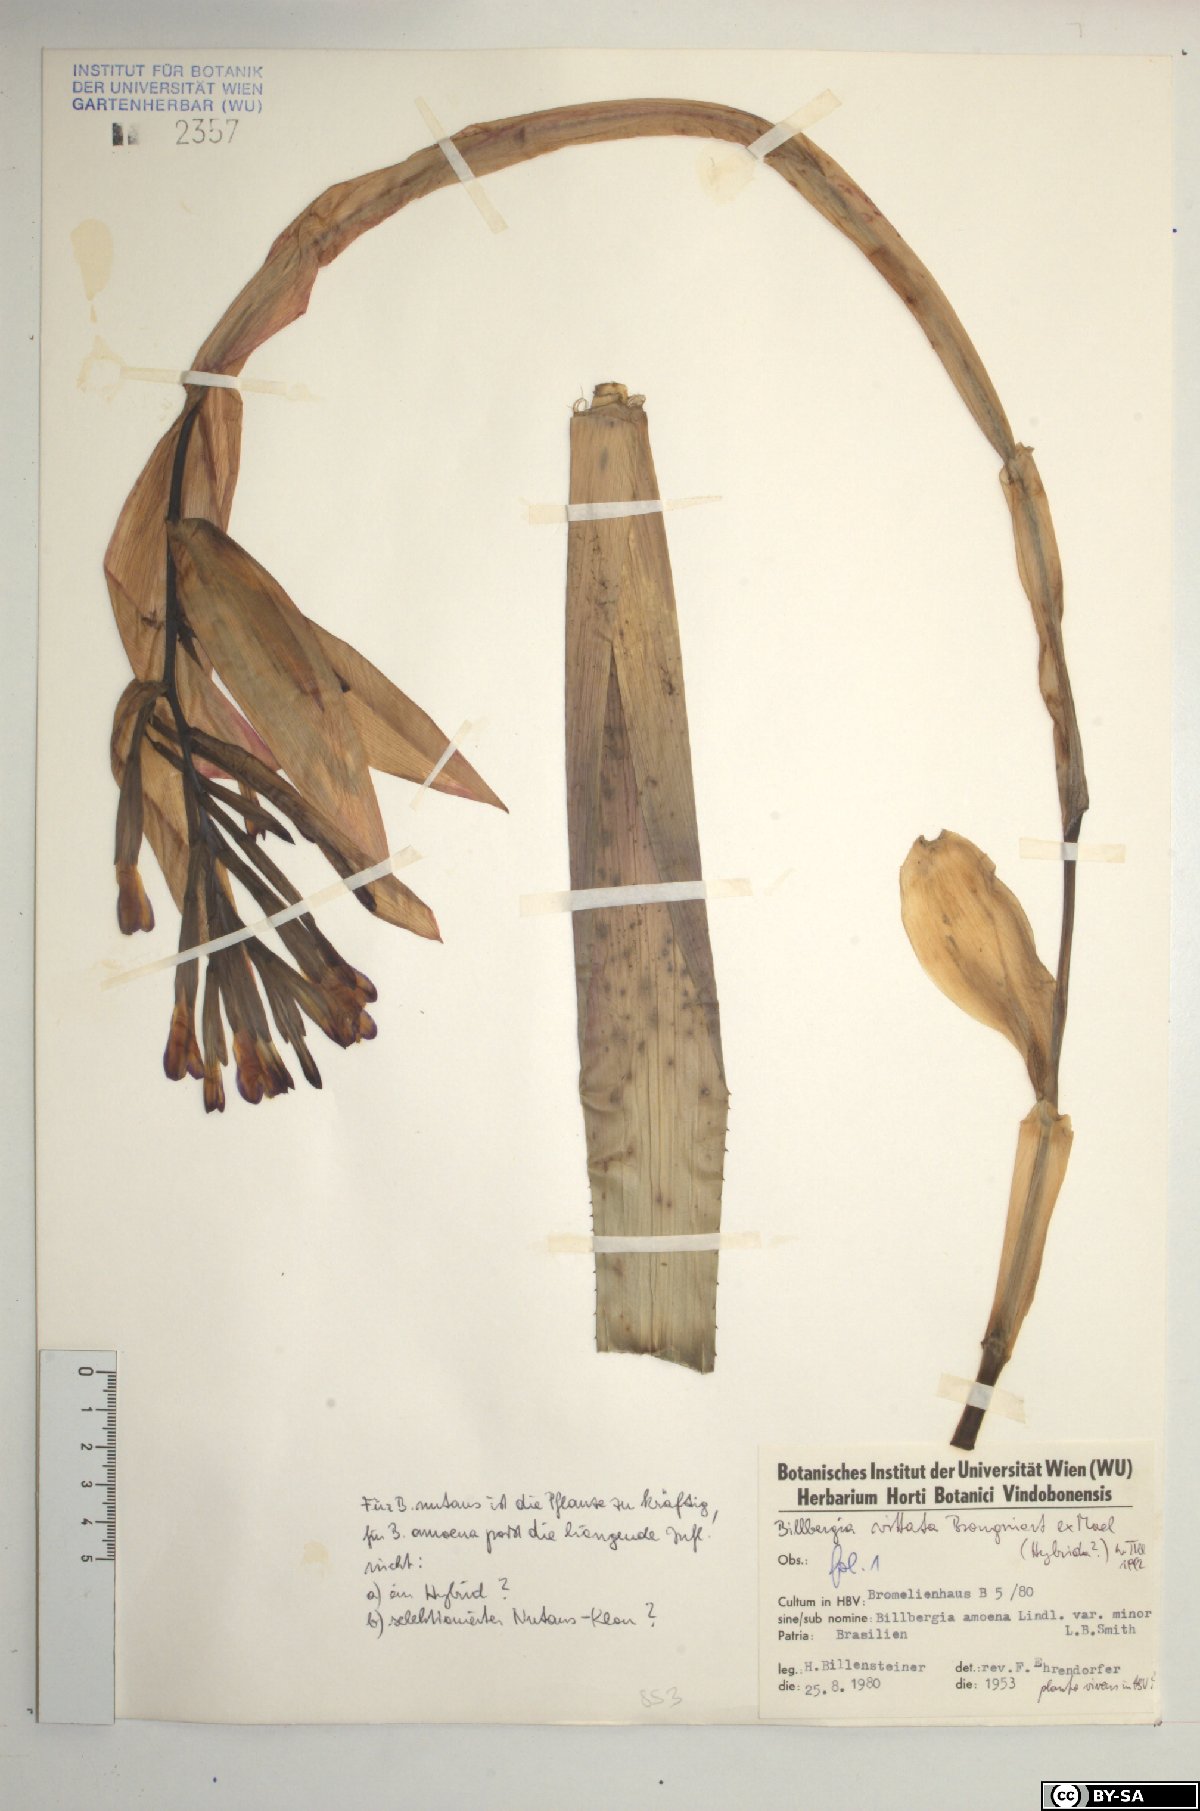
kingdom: Plantae
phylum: Tracheophyta
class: Liliopsida
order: Poales
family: Bromeliaceae
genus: Billbergia
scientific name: Billbergia vittata
